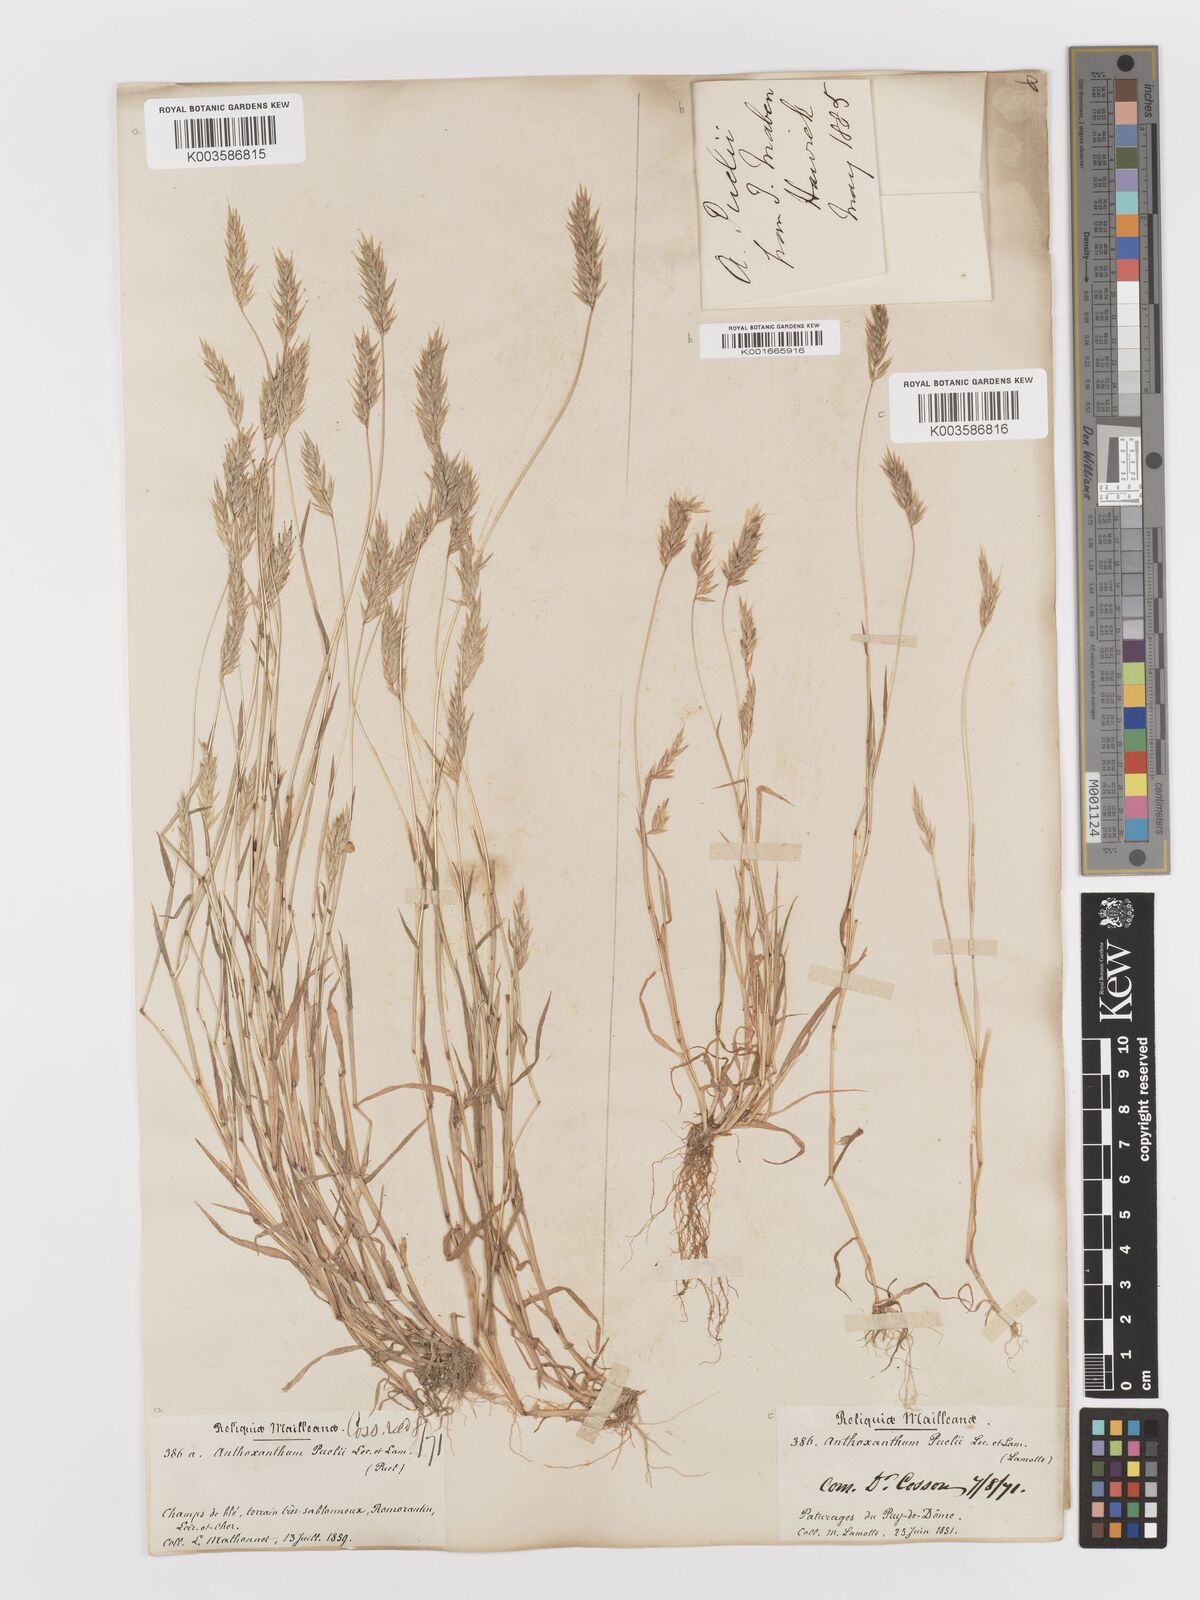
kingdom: Plantae
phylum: Tracheophyta
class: Liliopsida
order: Poales
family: Poaceae
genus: Anthoxanthum
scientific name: Anthoxanthum
